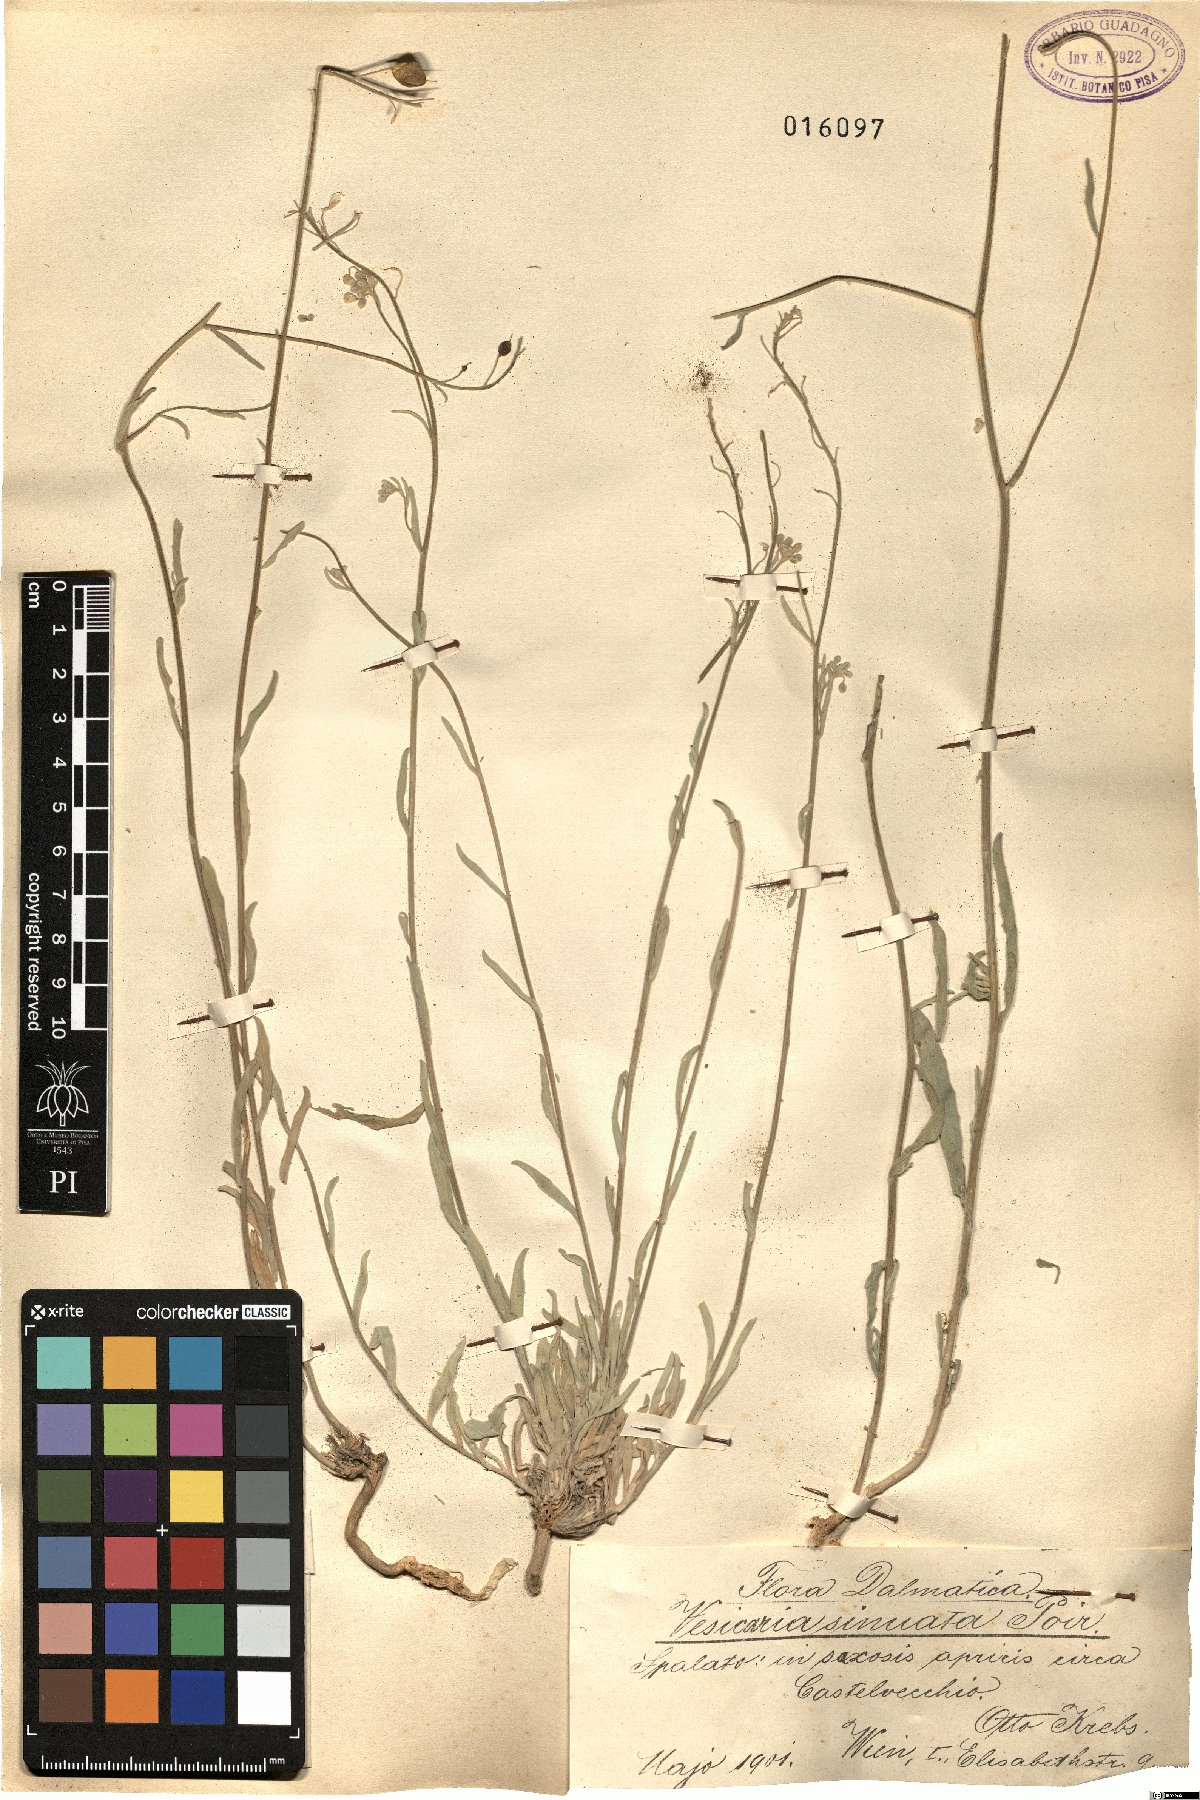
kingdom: Plantae
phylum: Tracheophyta
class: Magnoliopsida
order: Brassicales
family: Brassicaceae
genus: Aurinia
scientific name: Aurinia sinuata
